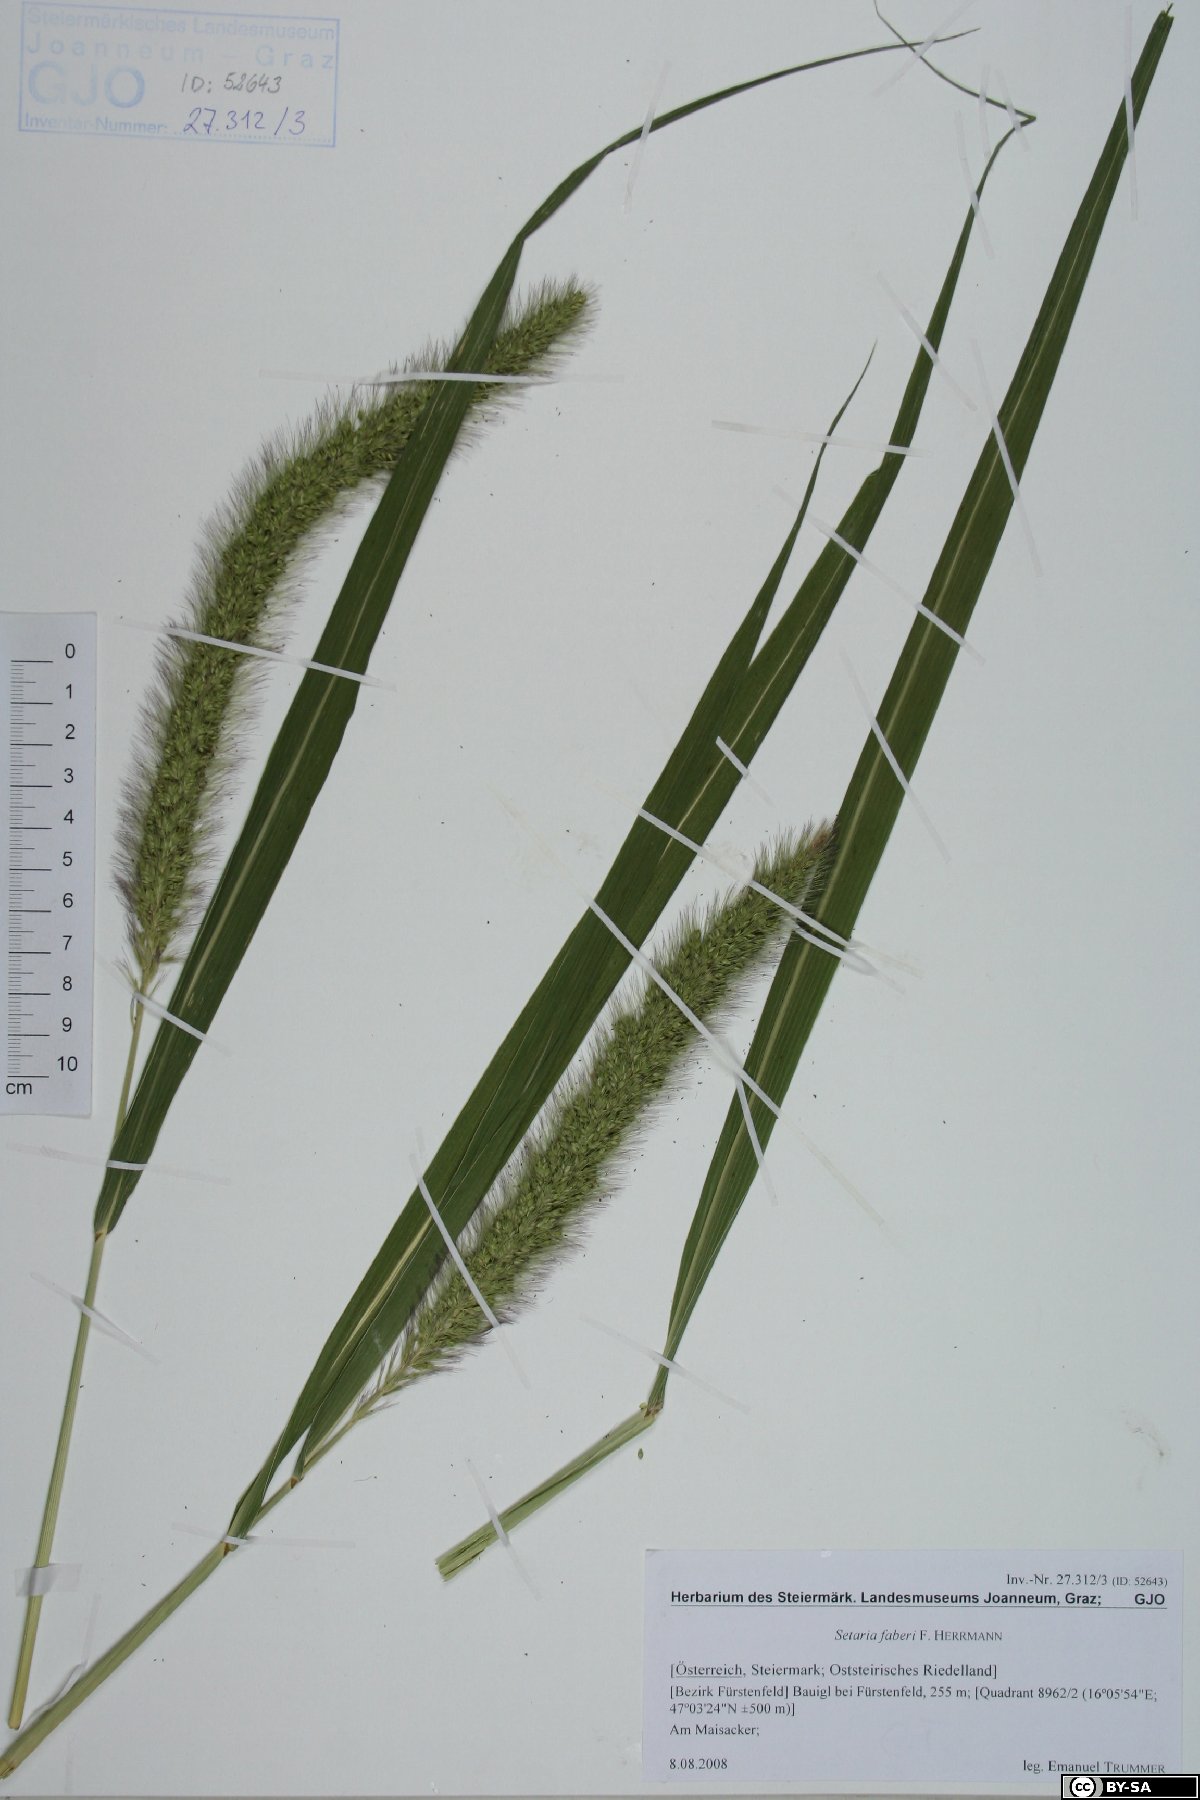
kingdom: Plantae
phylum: Tracheophyta
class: Liliopsida
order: Poales
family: Poaceae
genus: Setaria
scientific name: Setaria faberi
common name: Nodding bristle-grass
